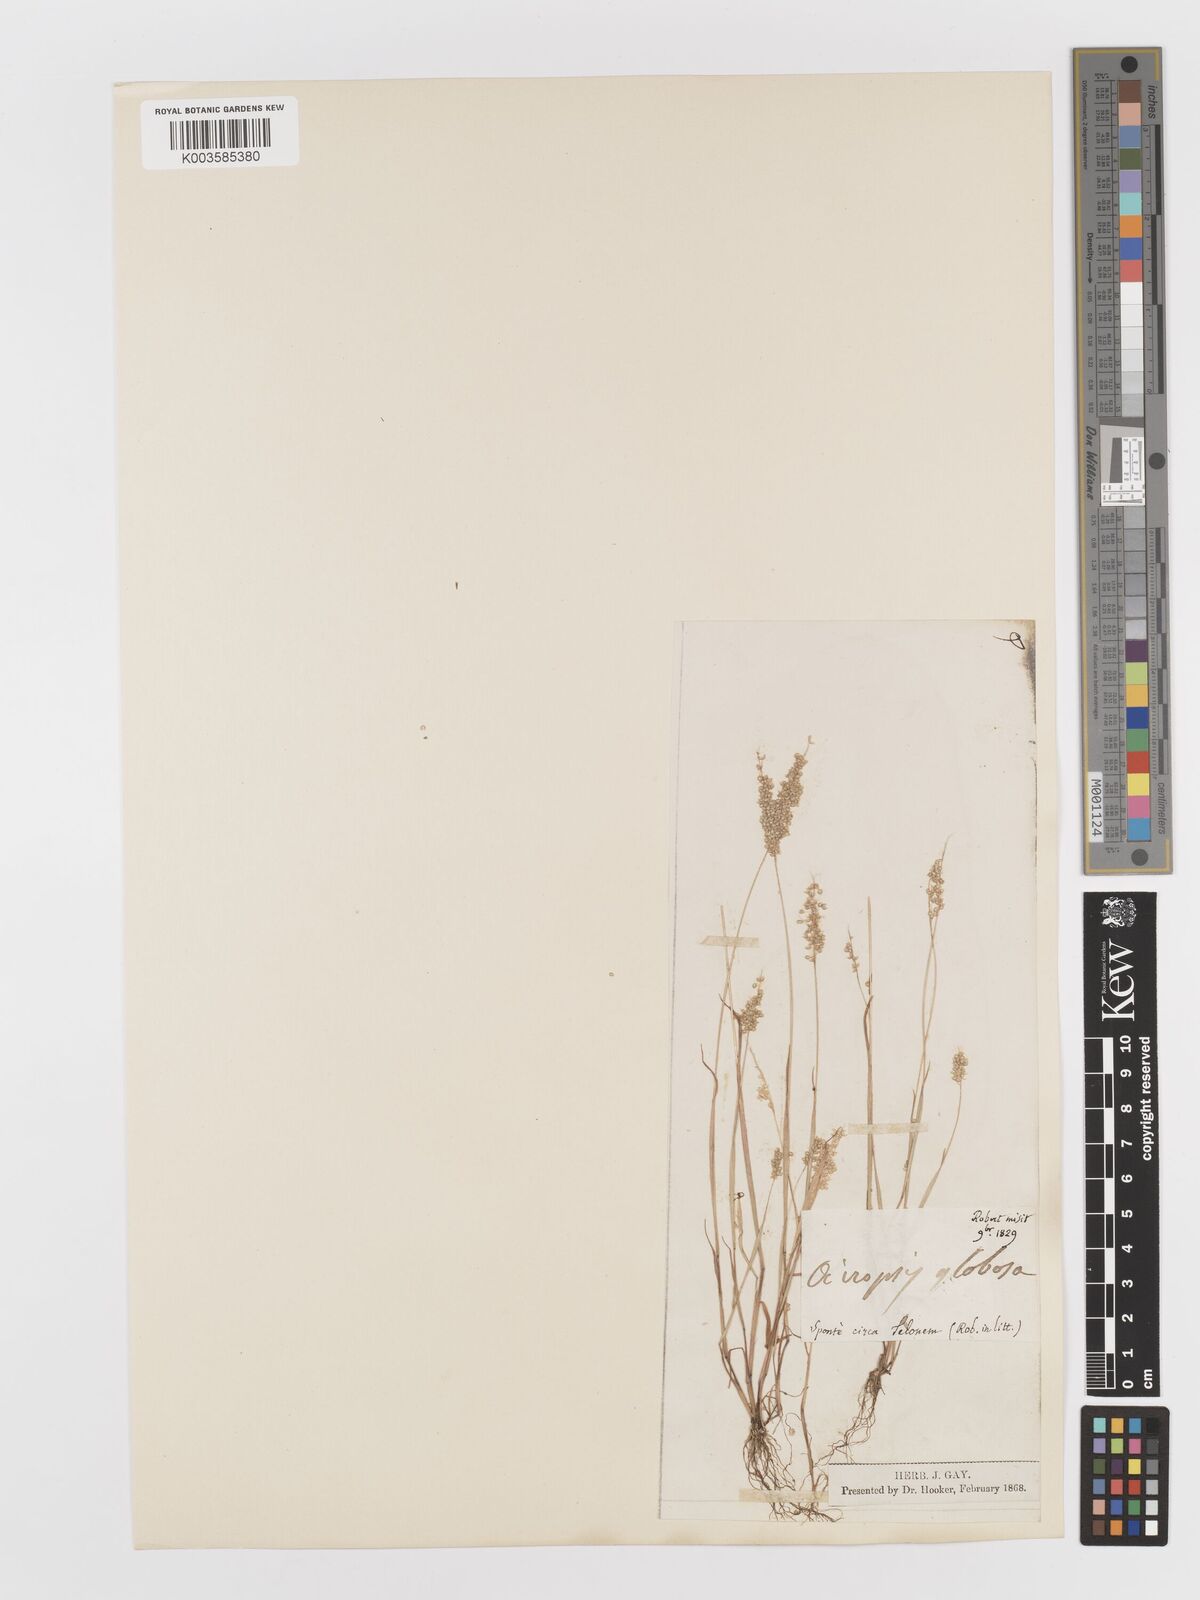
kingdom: Plantae
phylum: Tracheophyta
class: Liliopsida
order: Poales
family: Poaceae
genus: Airopsis
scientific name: Airopsis tenella
